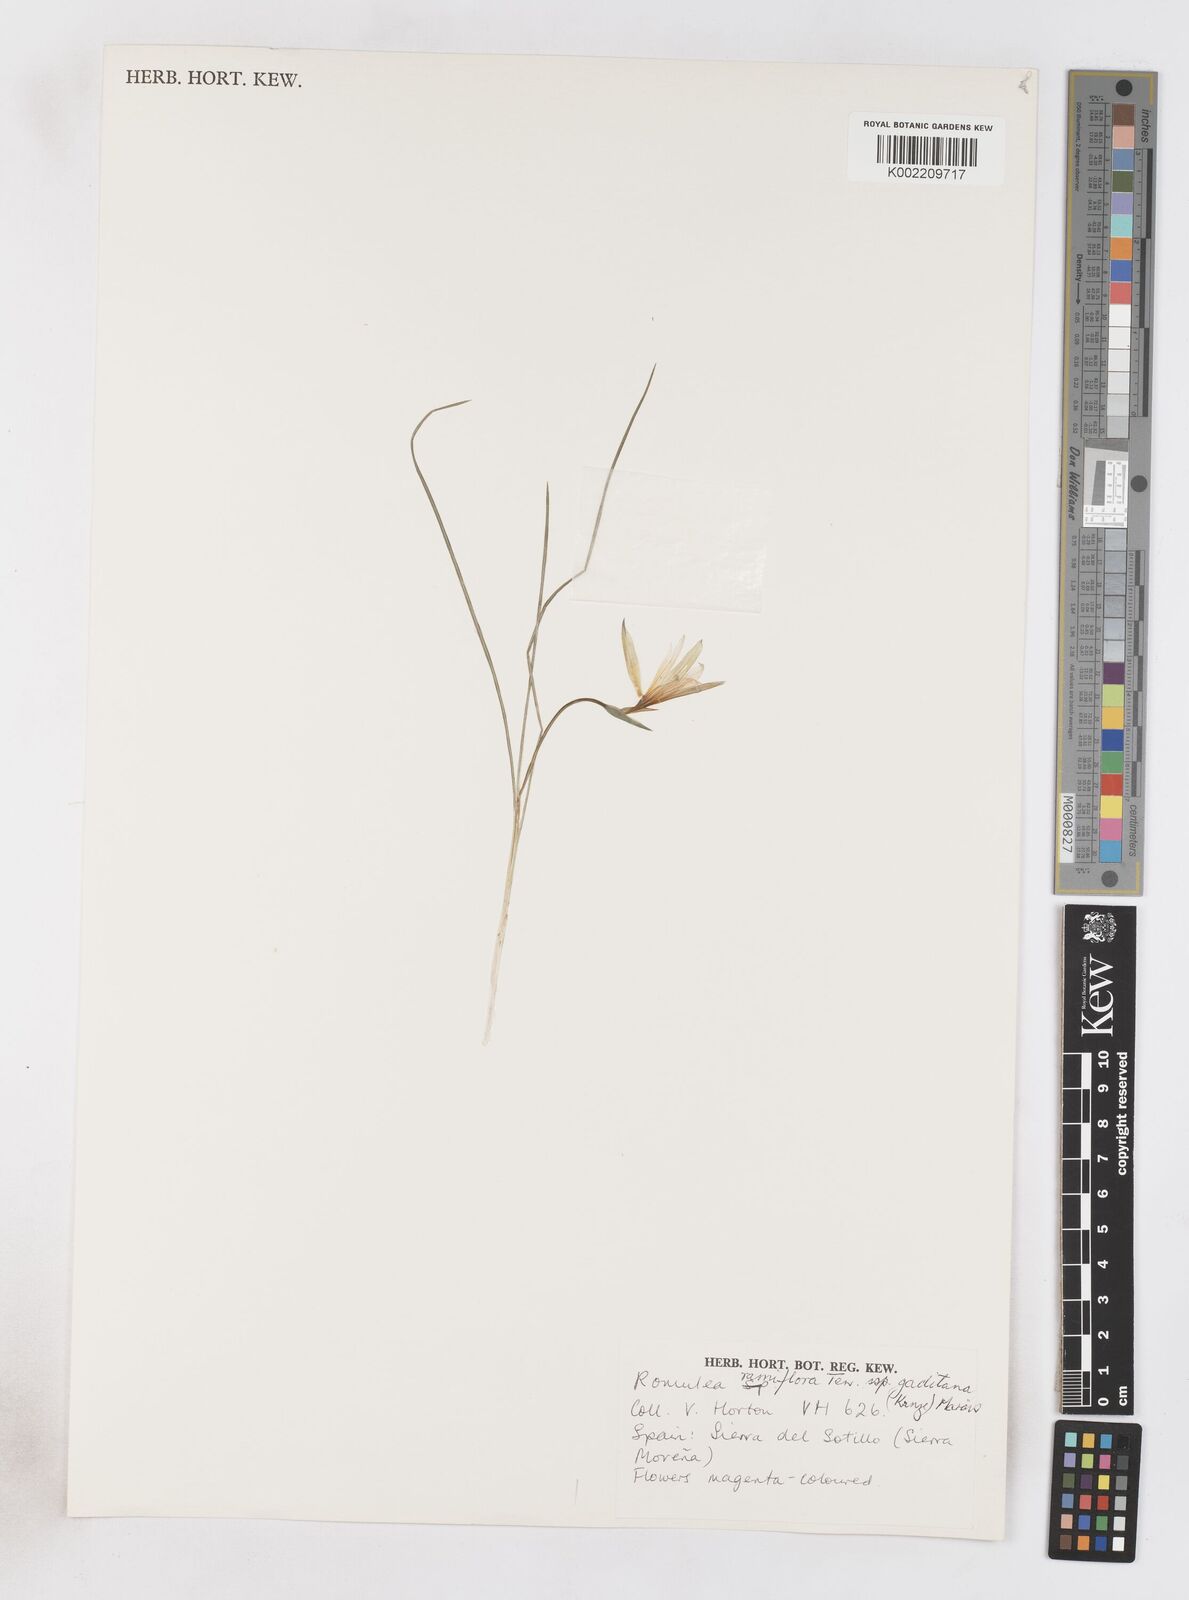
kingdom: Plantae
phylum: Tracheophyta
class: Liliopsida
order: Asparagales
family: Iridaceae
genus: Romulea
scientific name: Romulea ramiflora
